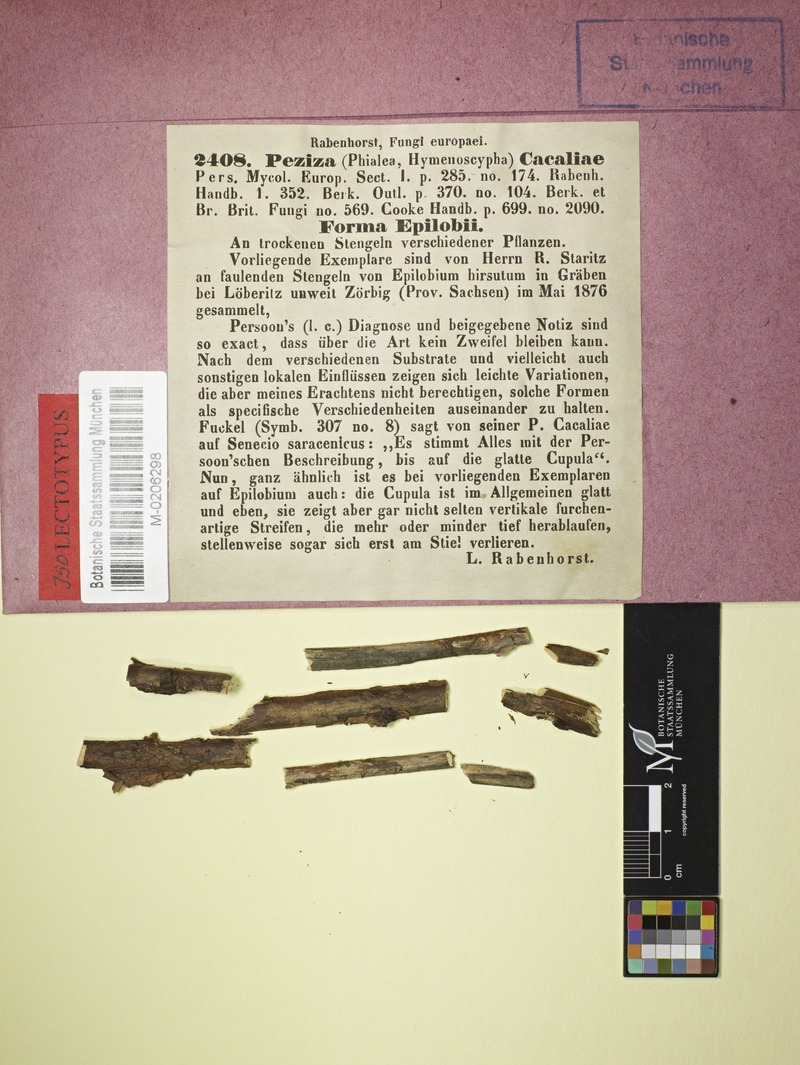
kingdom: Fungi
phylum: Ascomycota
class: Leotiomycetes
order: Helotiales
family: Helotiaceae
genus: Cyathicula
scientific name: Cyathicula cyathoidea
